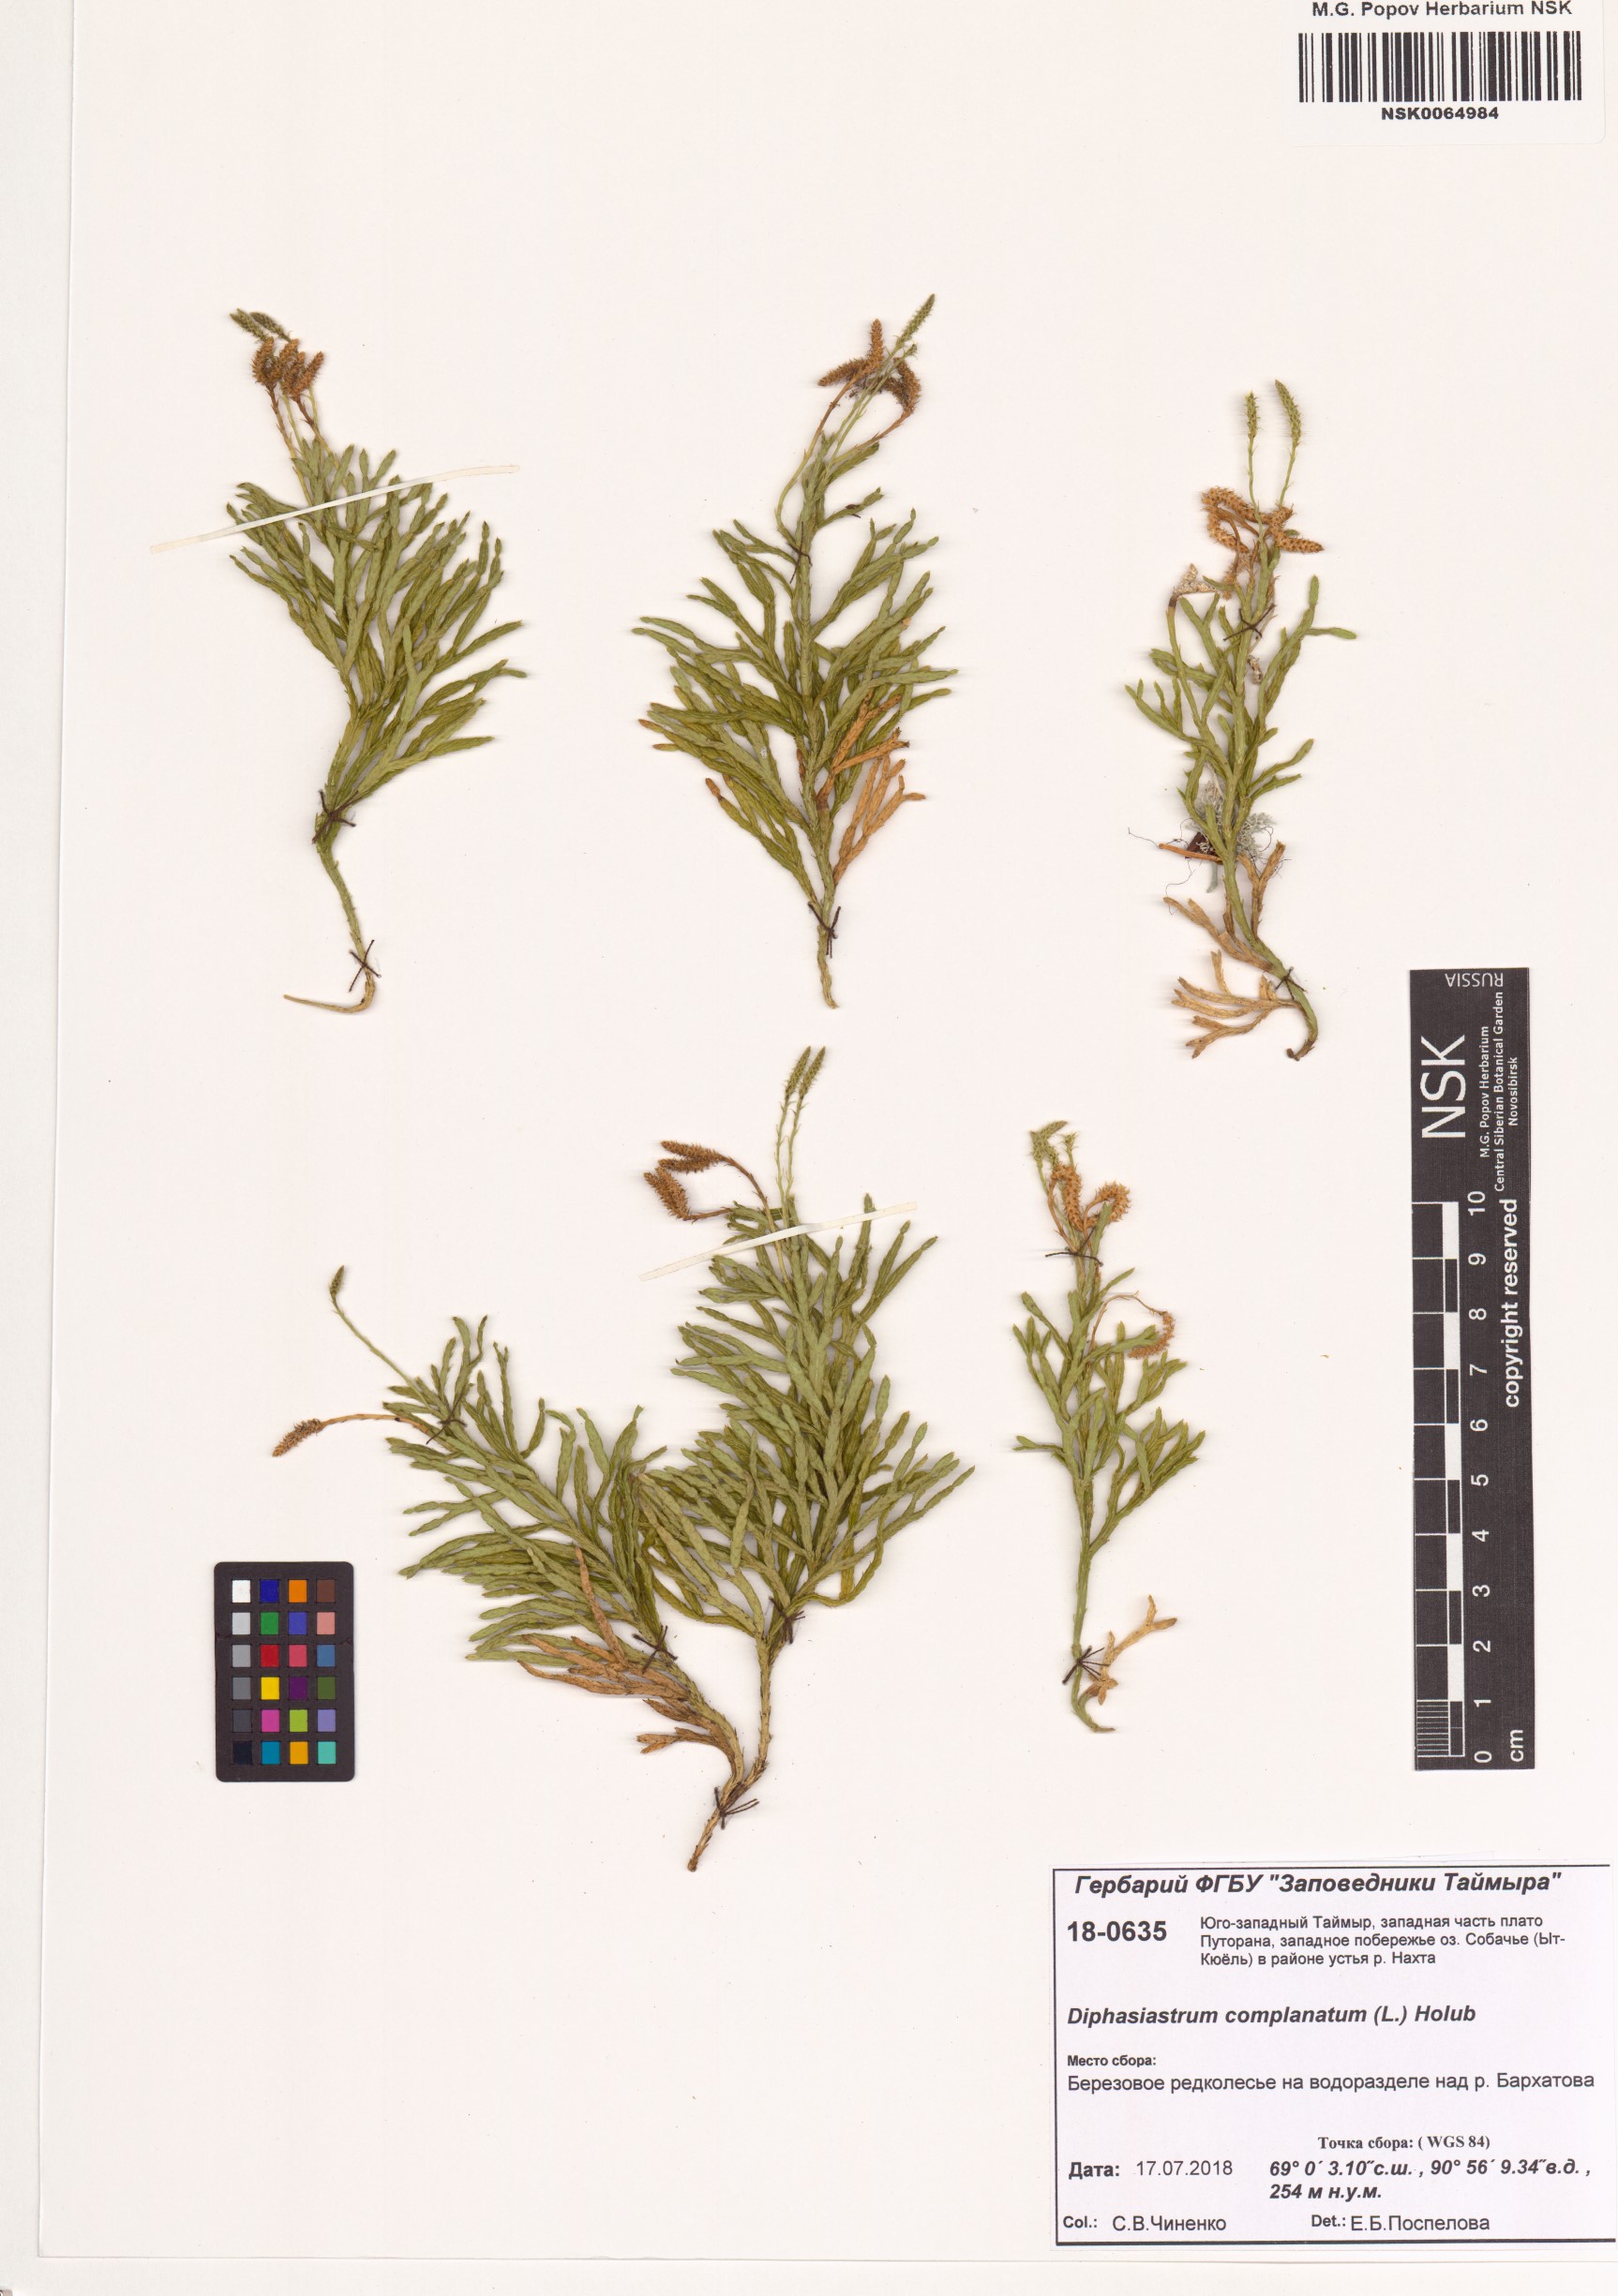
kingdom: Plantae
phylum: Tracheophyta
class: Lycopodiopsida
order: Lycopodiales
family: Lycopodiaceae
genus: Diphasiastrum
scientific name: Diphasiastrum complanatum
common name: Northern running-pine
